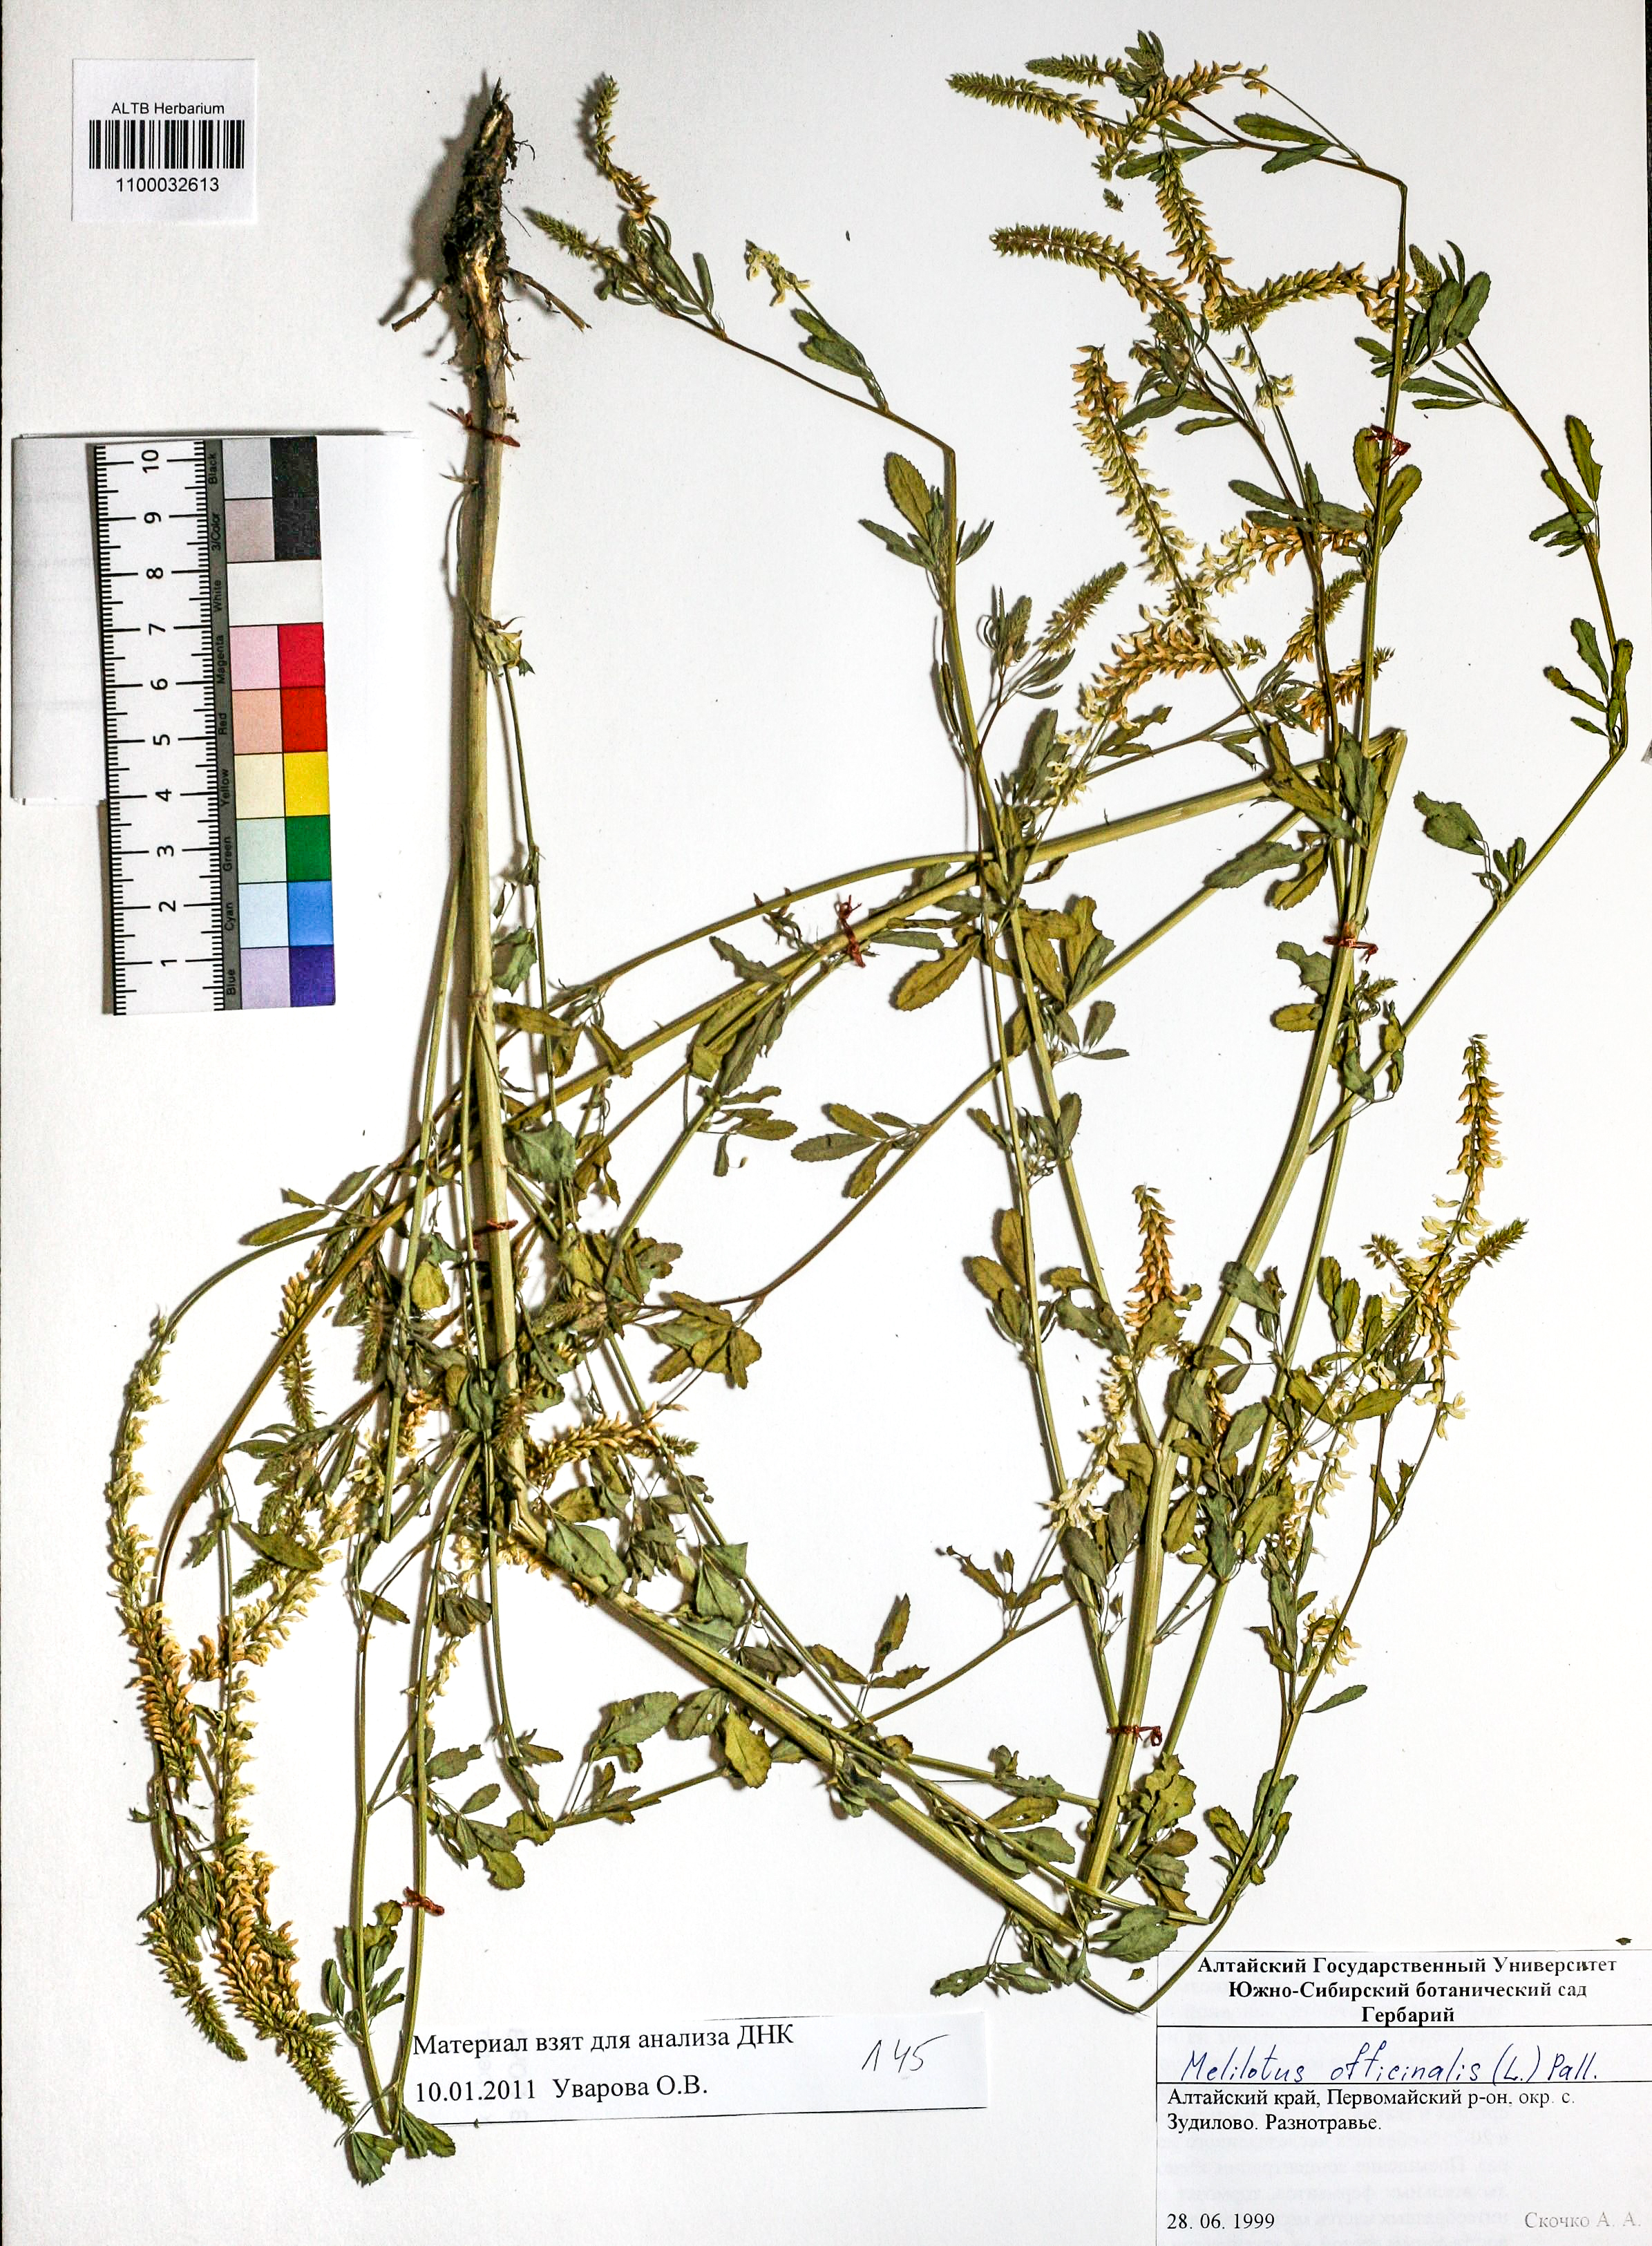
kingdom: Plantae
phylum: Tracheophyta
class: Magnoliopsida
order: Fabales
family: Fabaceae
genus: Melilotus
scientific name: Melilotus officinalis
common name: Sweetclover
